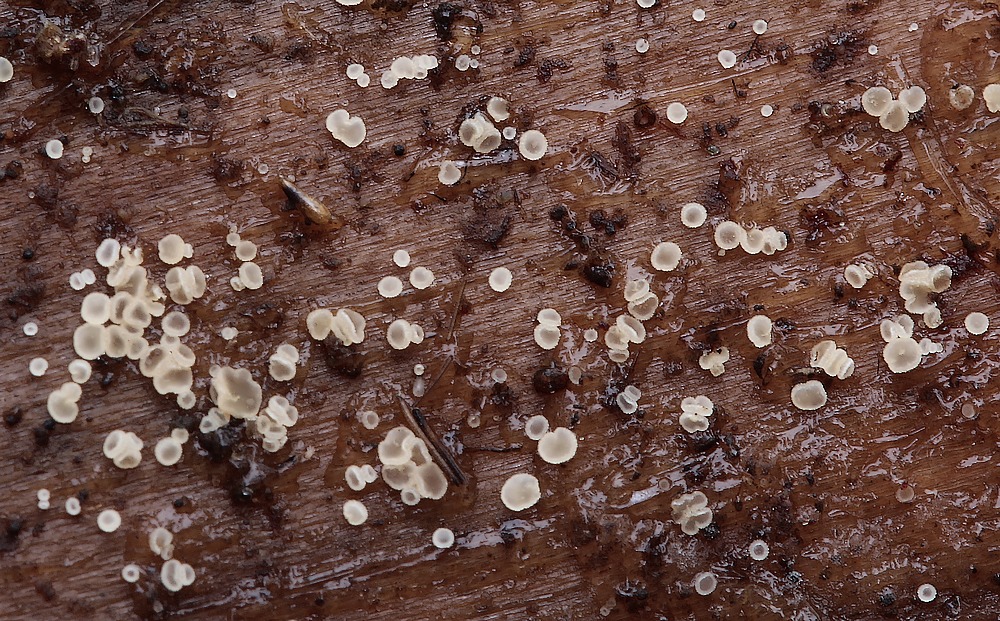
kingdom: Fungi
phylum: Ascomycota
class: Leotiomycetes
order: Helotiales
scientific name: Helotiales
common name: stilkskiveordenen
